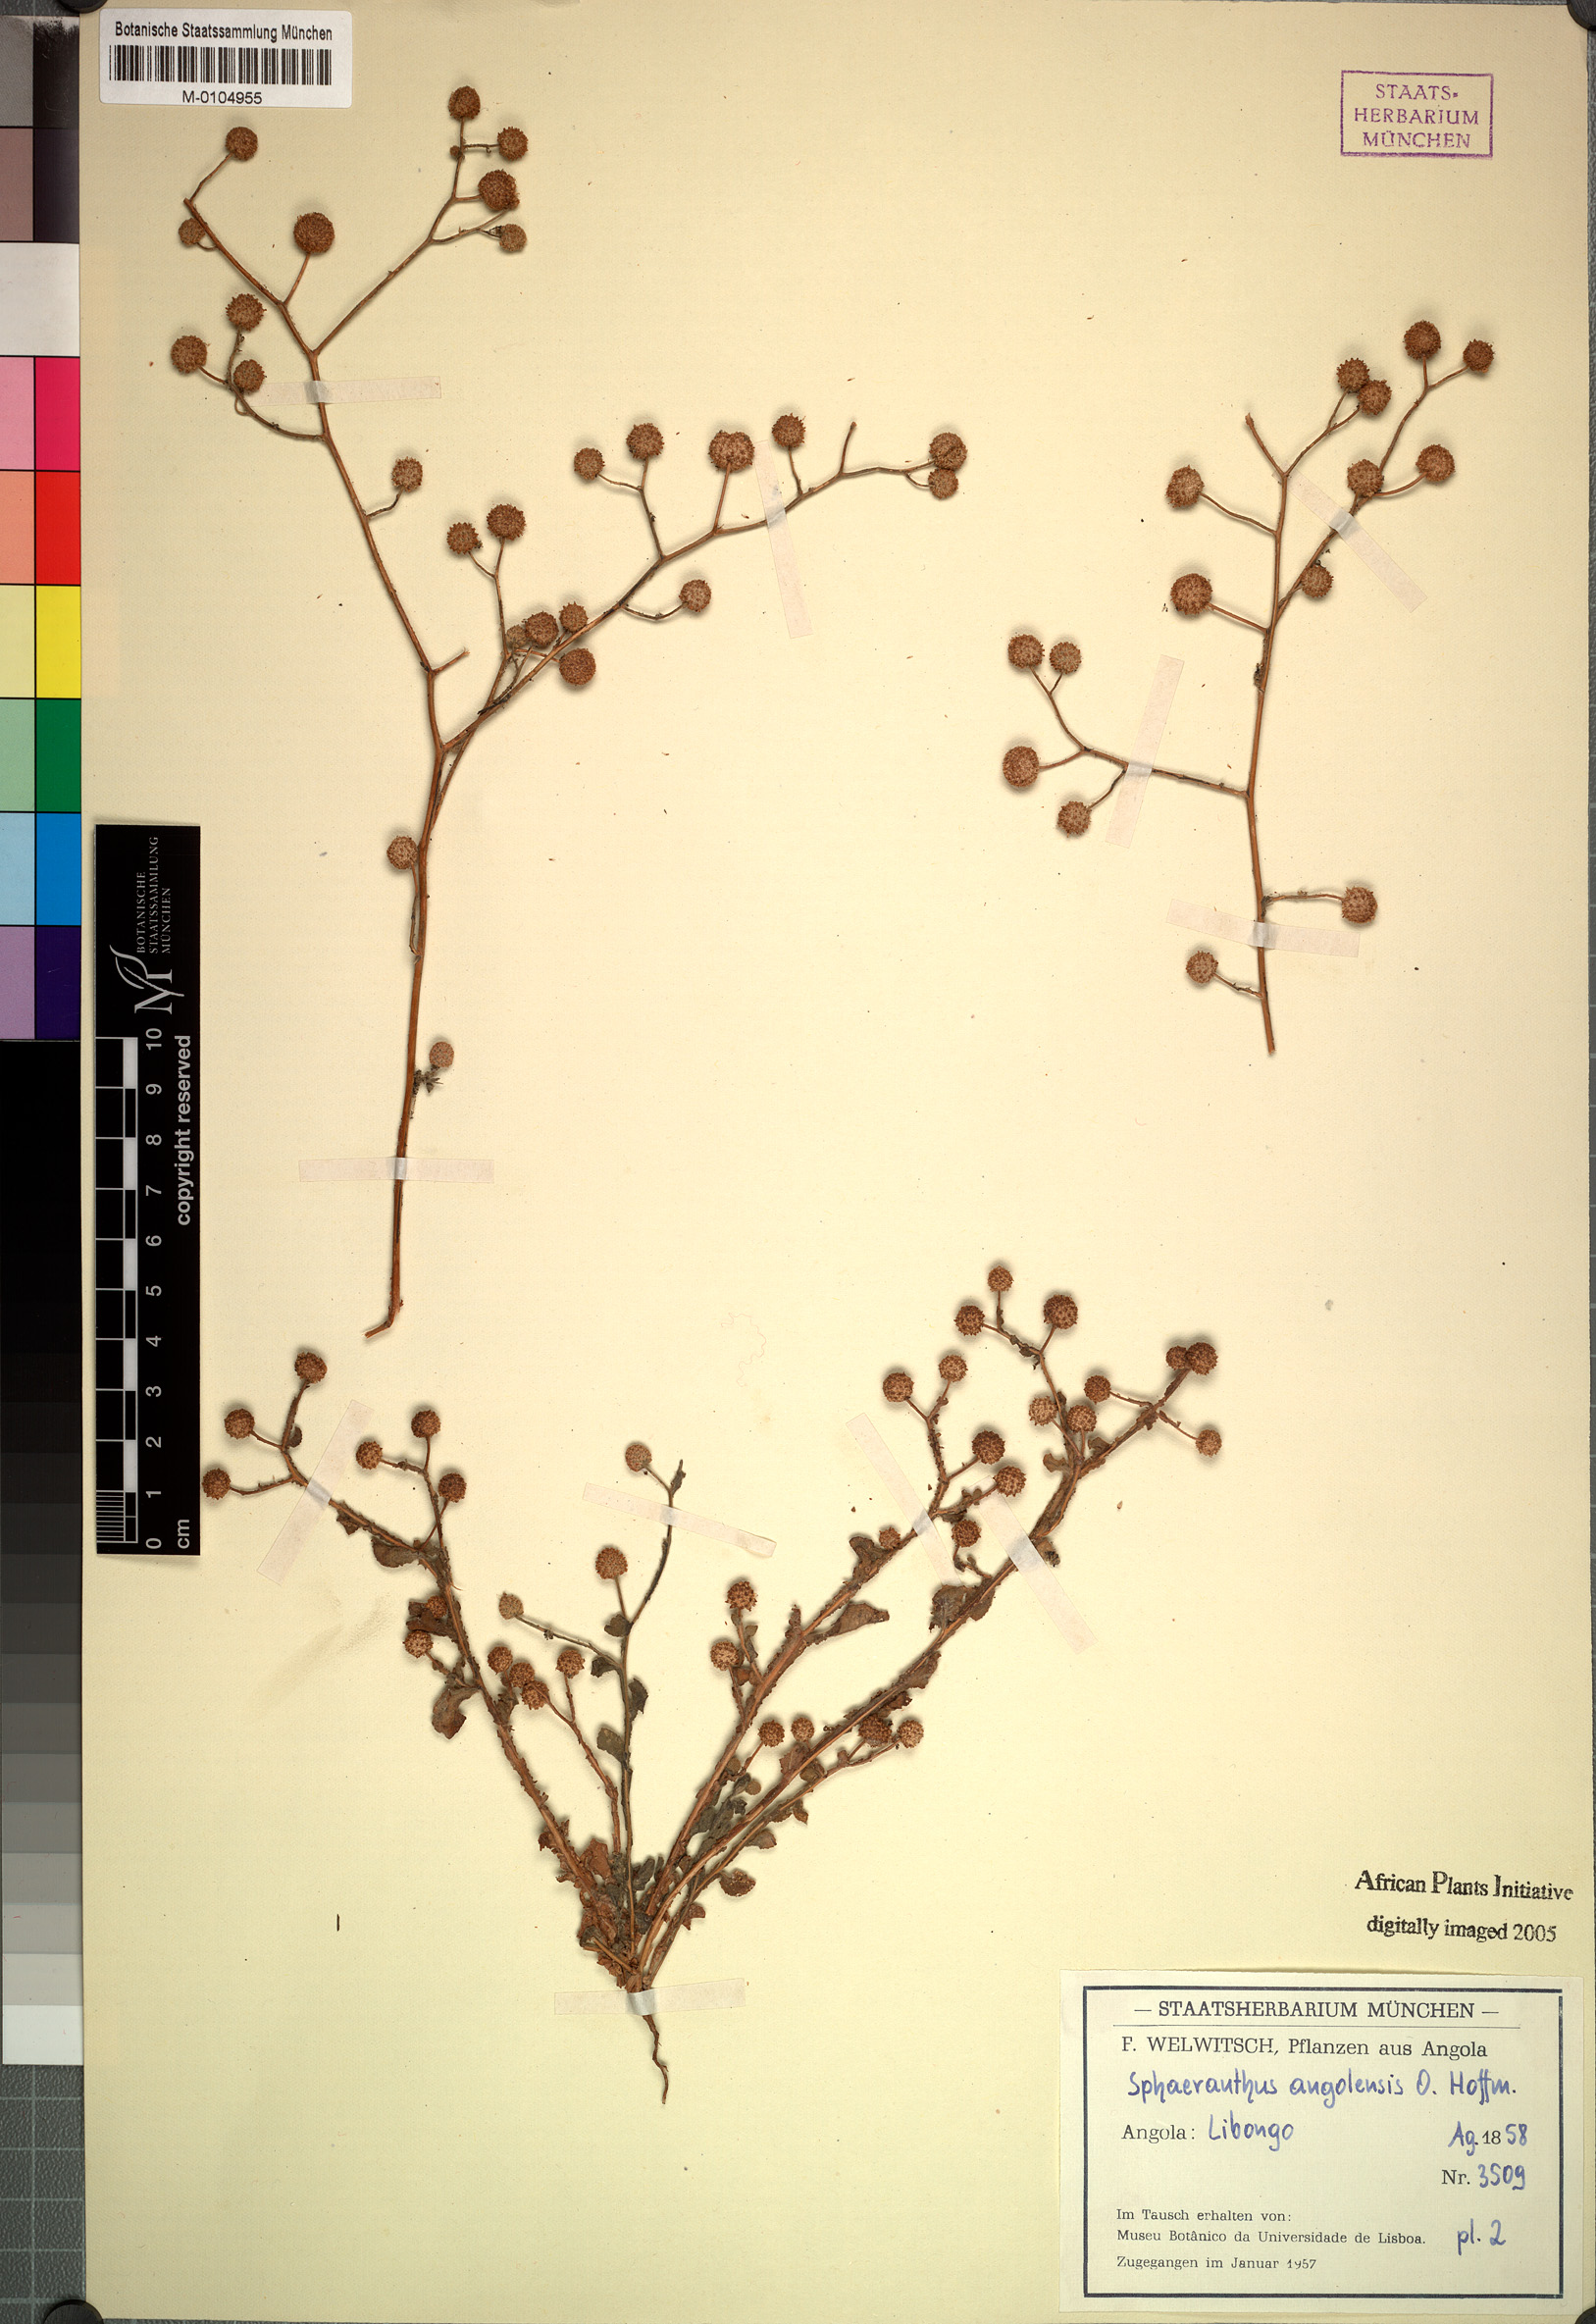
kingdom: Plantae
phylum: Tracheophyta
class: Magnoliopsida
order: Asterales
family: Asteraceae
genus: Sphaeranthus
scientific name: Sphaeranthus angolensis
